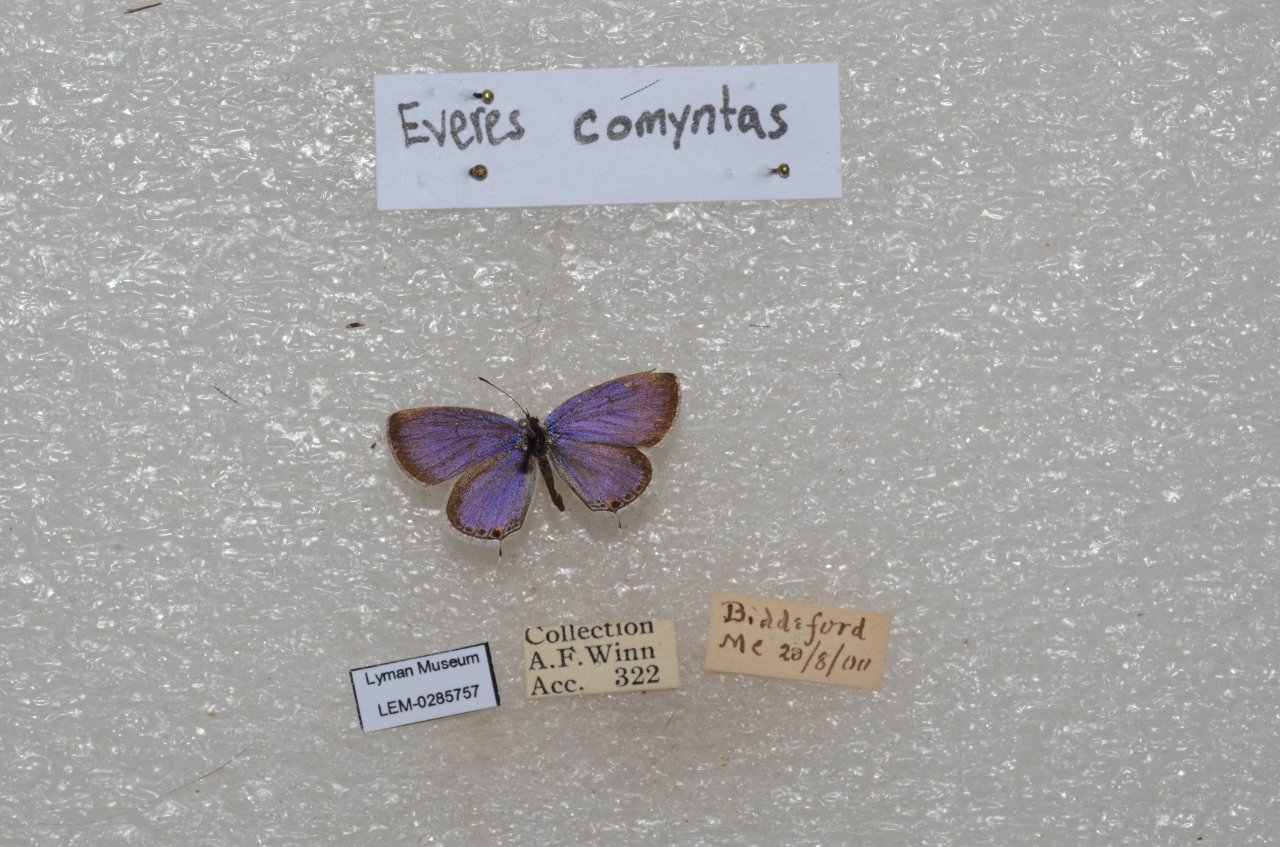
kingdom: Animalia
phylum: Arthropoda
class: Insecta
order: Lepidoptera
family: Lycaenidae
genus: Elkalyce
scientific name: Elkalyce comyntas
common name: Eastern Tailed-Blue
